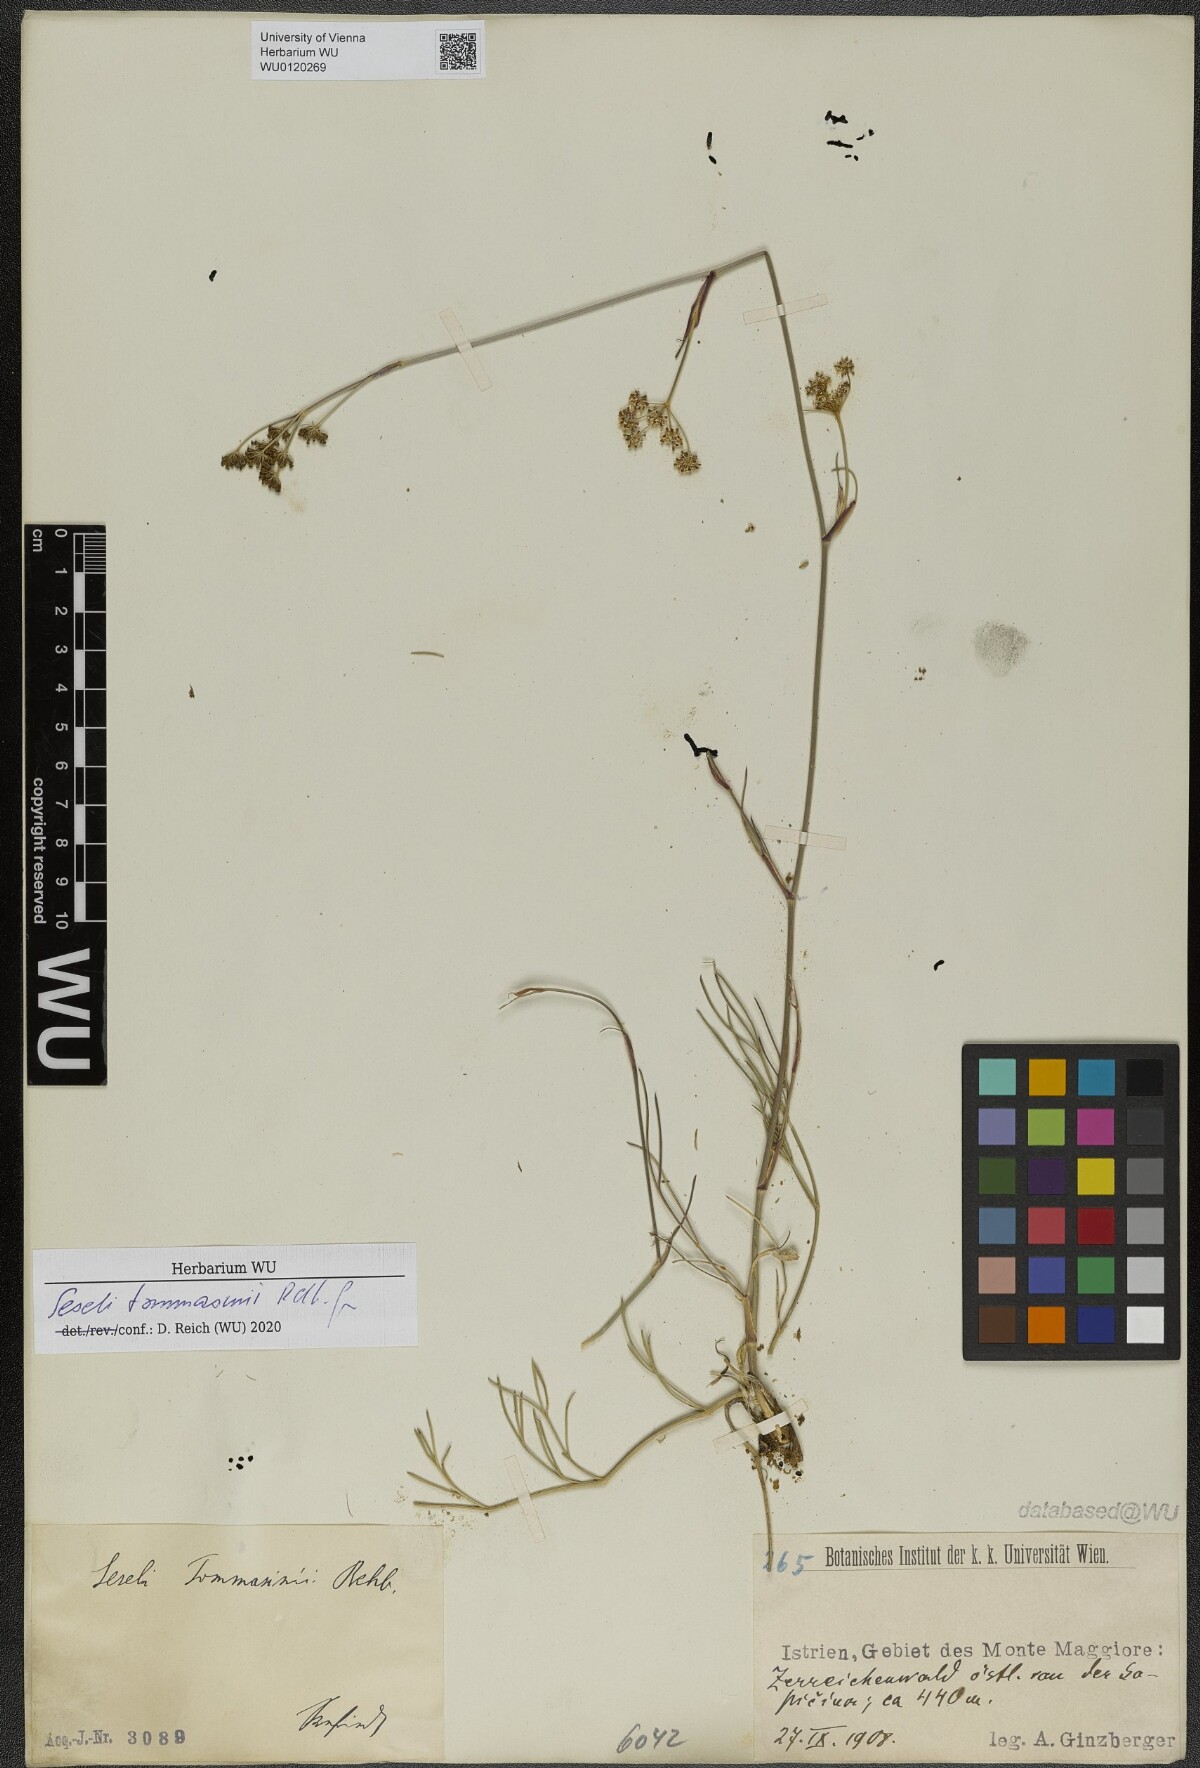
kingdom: Plantae
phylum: Tracheophyta
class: Magnoliopsida
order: Apiales
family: Apiaceae
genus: Seseli
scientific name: Seseli montanum
